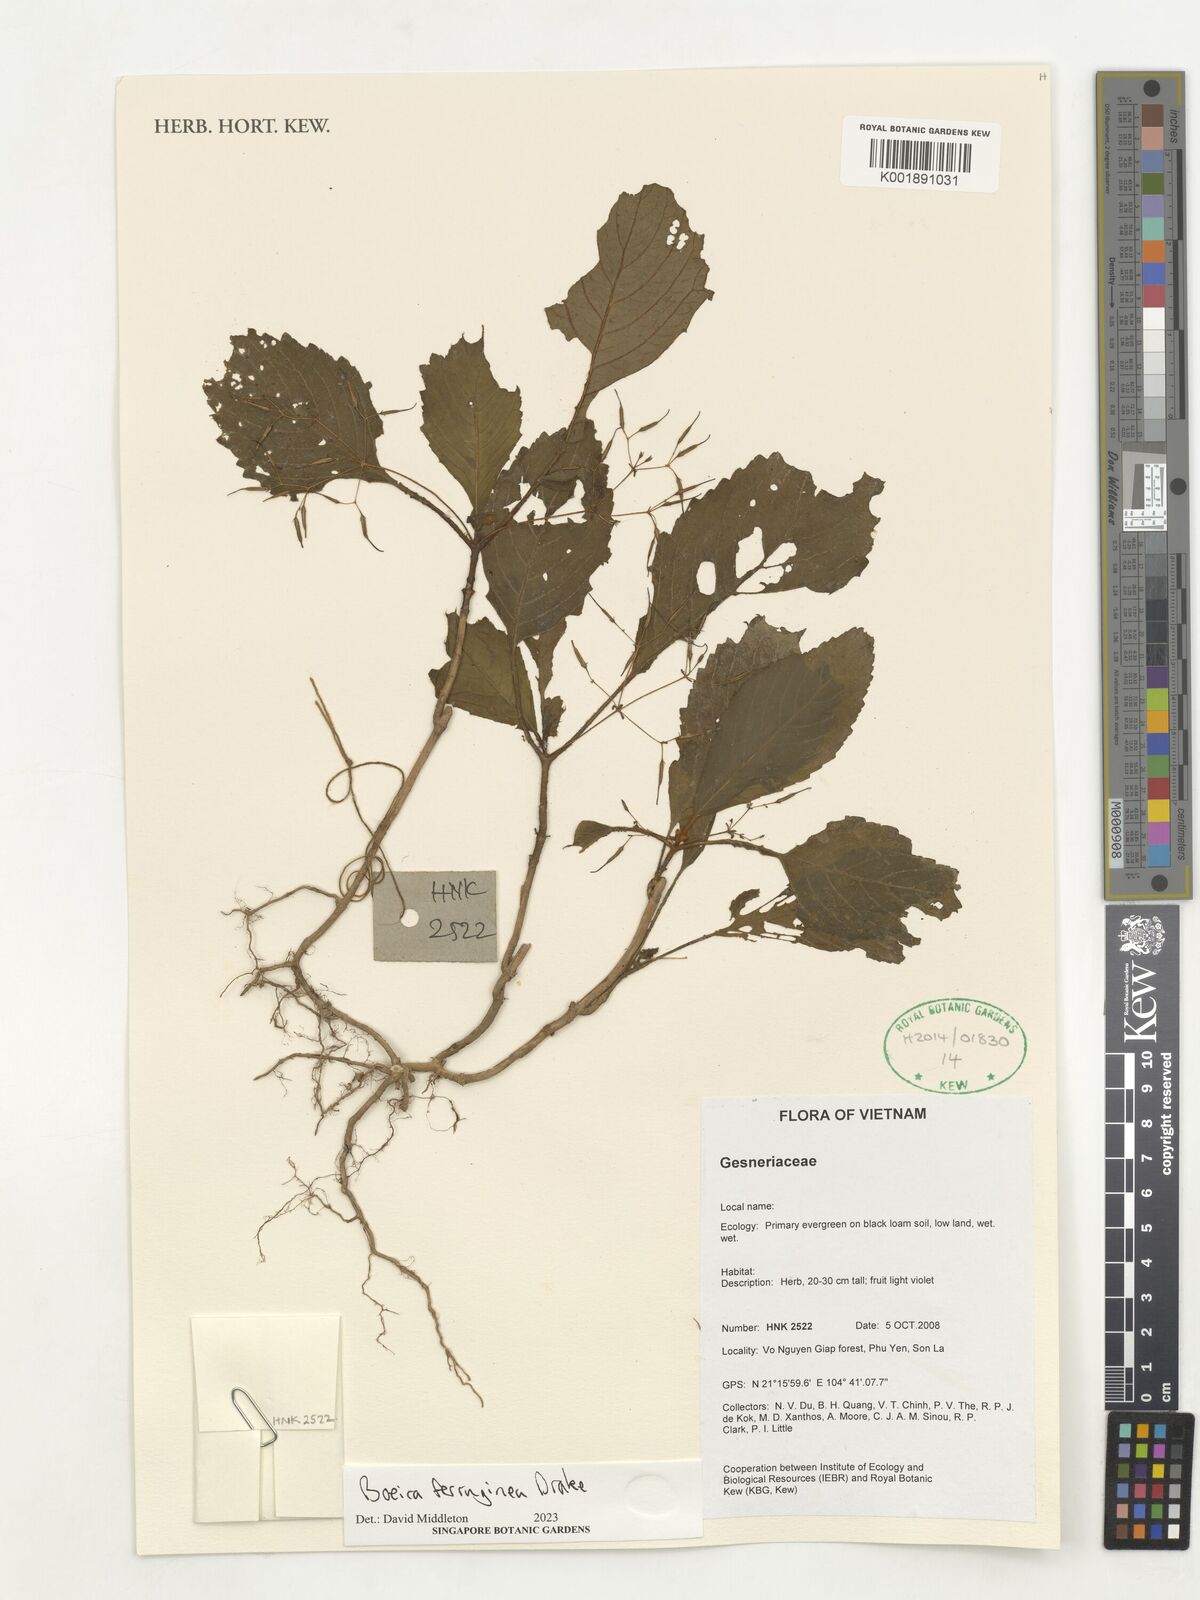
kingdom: Plantae
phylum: Tracheophyta
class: Magnoliopsida
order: Lamiales
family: Gesneriaceae
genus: Boeica
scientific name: Boeica ferruginea
